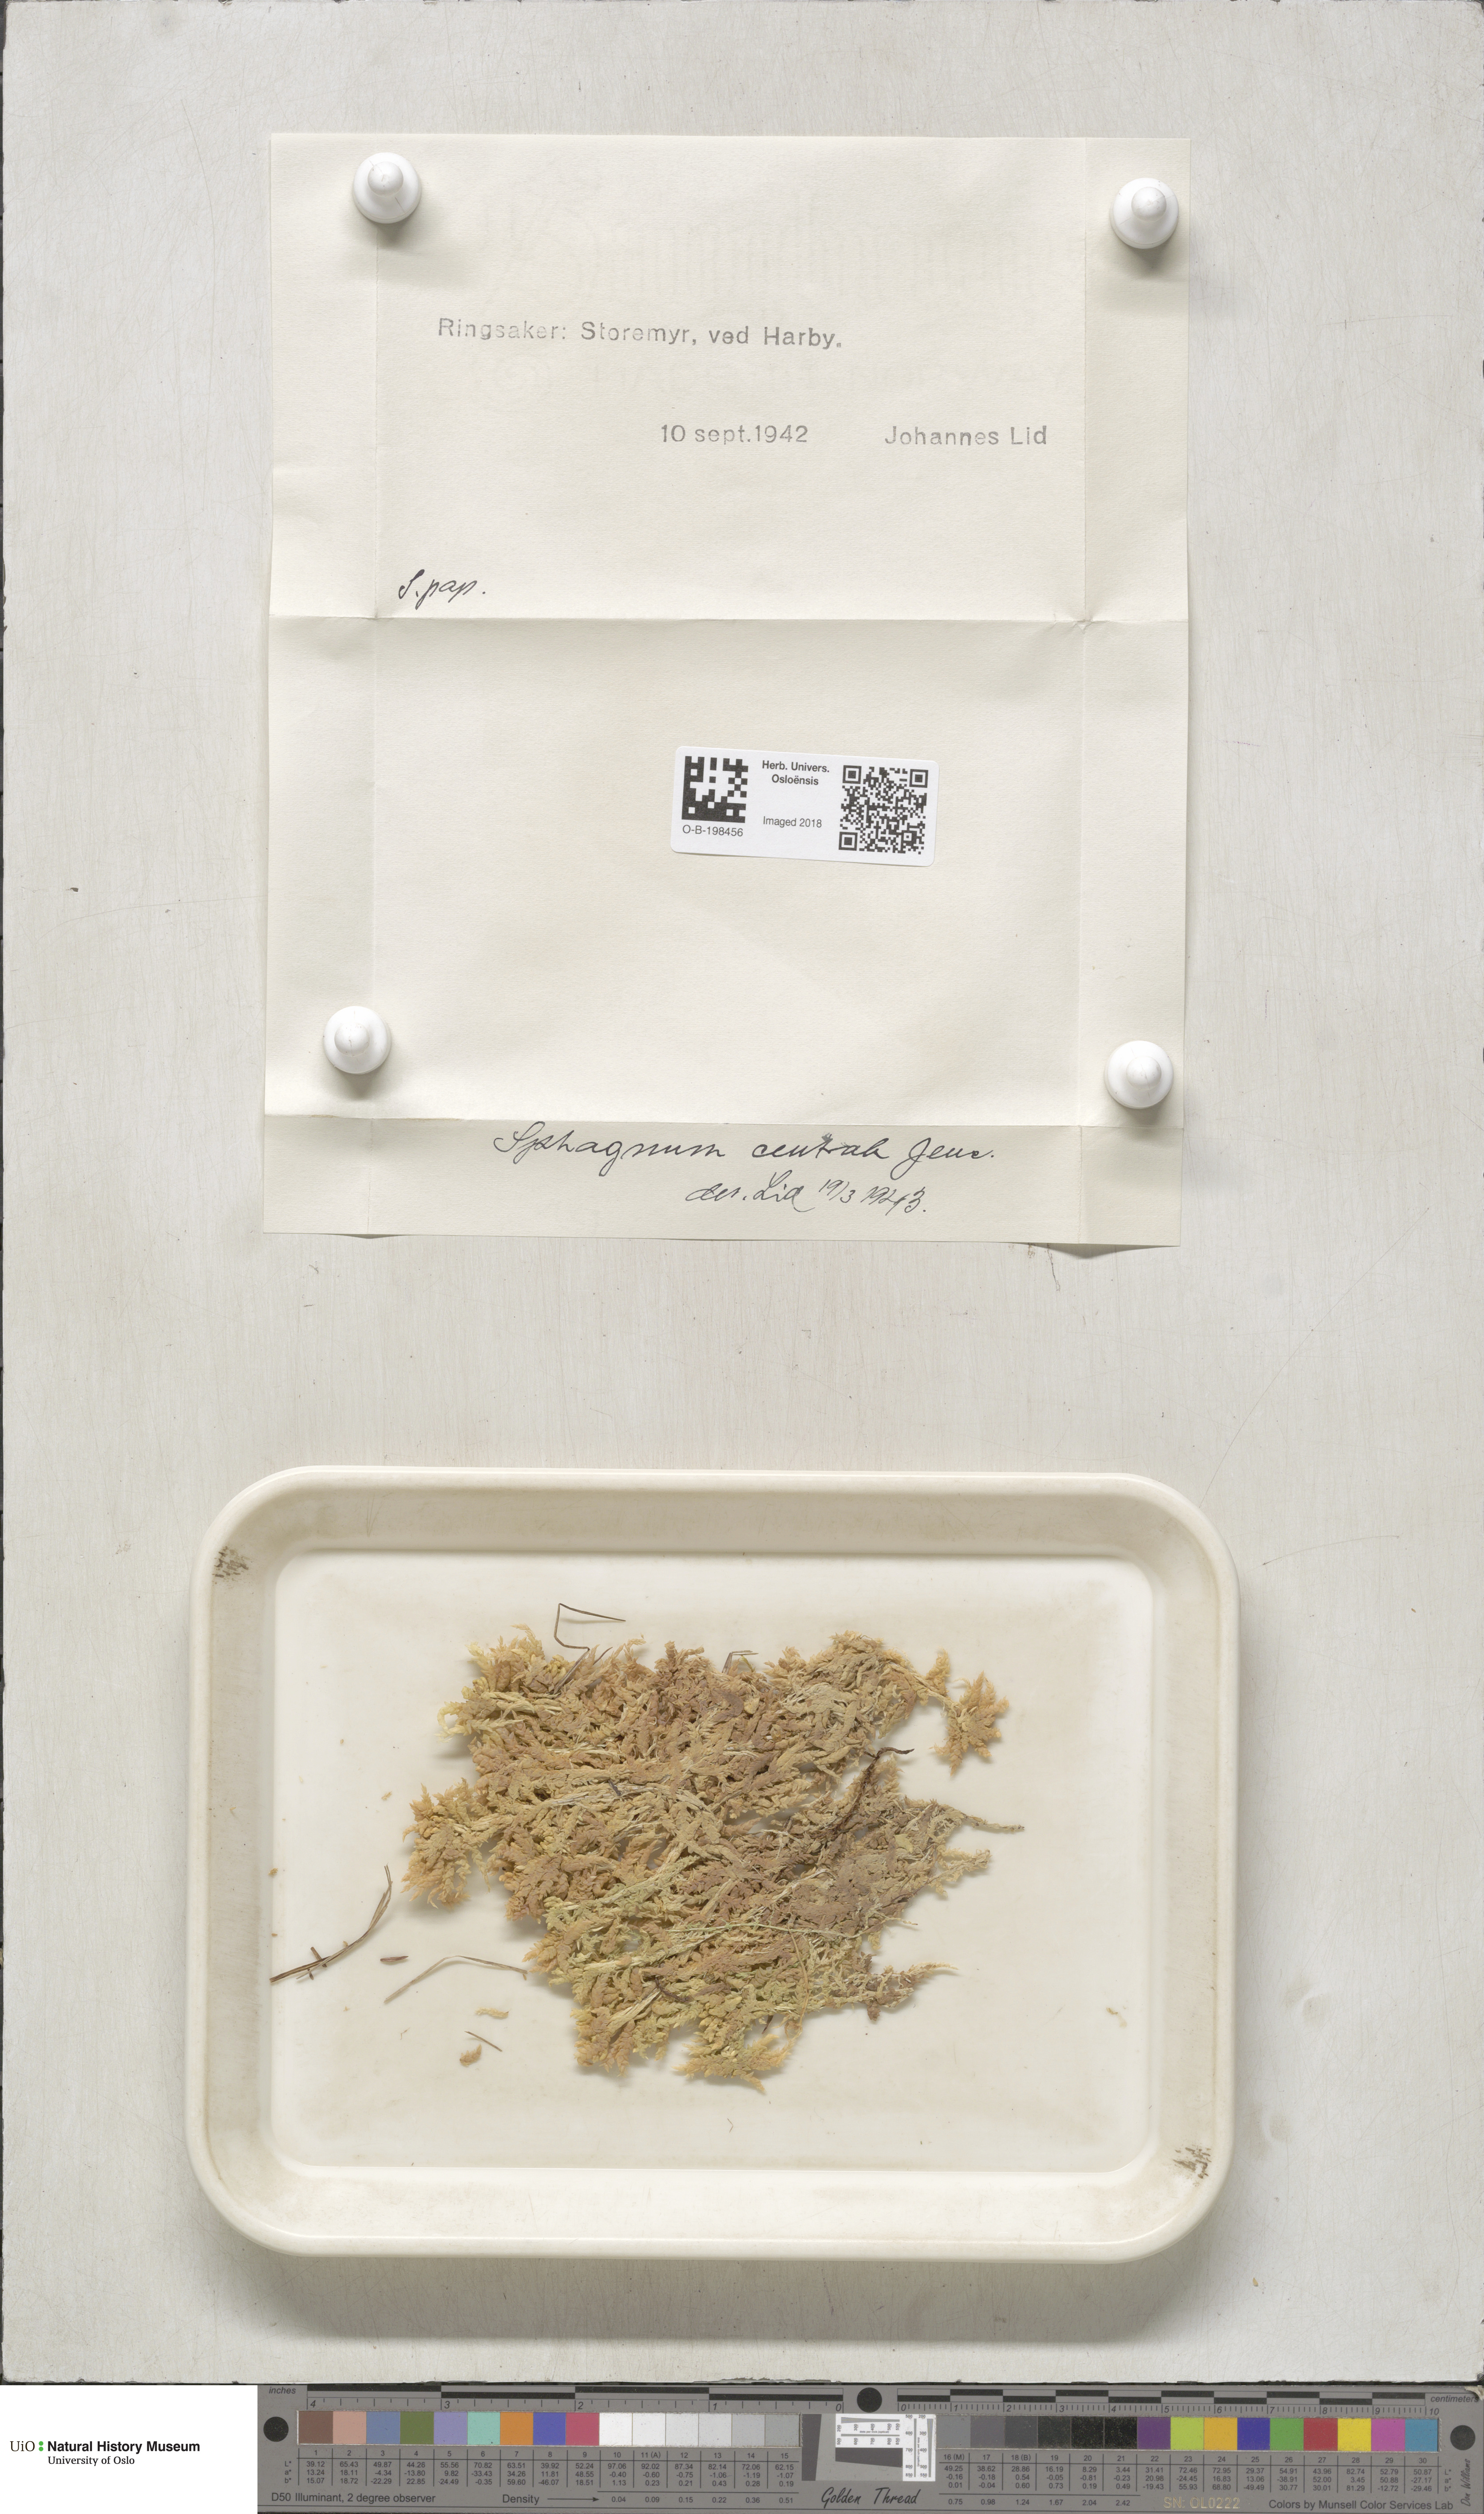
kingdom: Plantae
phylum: Bryophyta
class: Sphagnopsida
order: Sphagnales
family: Sphagnaceae
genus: Sphagnum
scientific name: Sphagnum centrale
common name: Central peat moss
